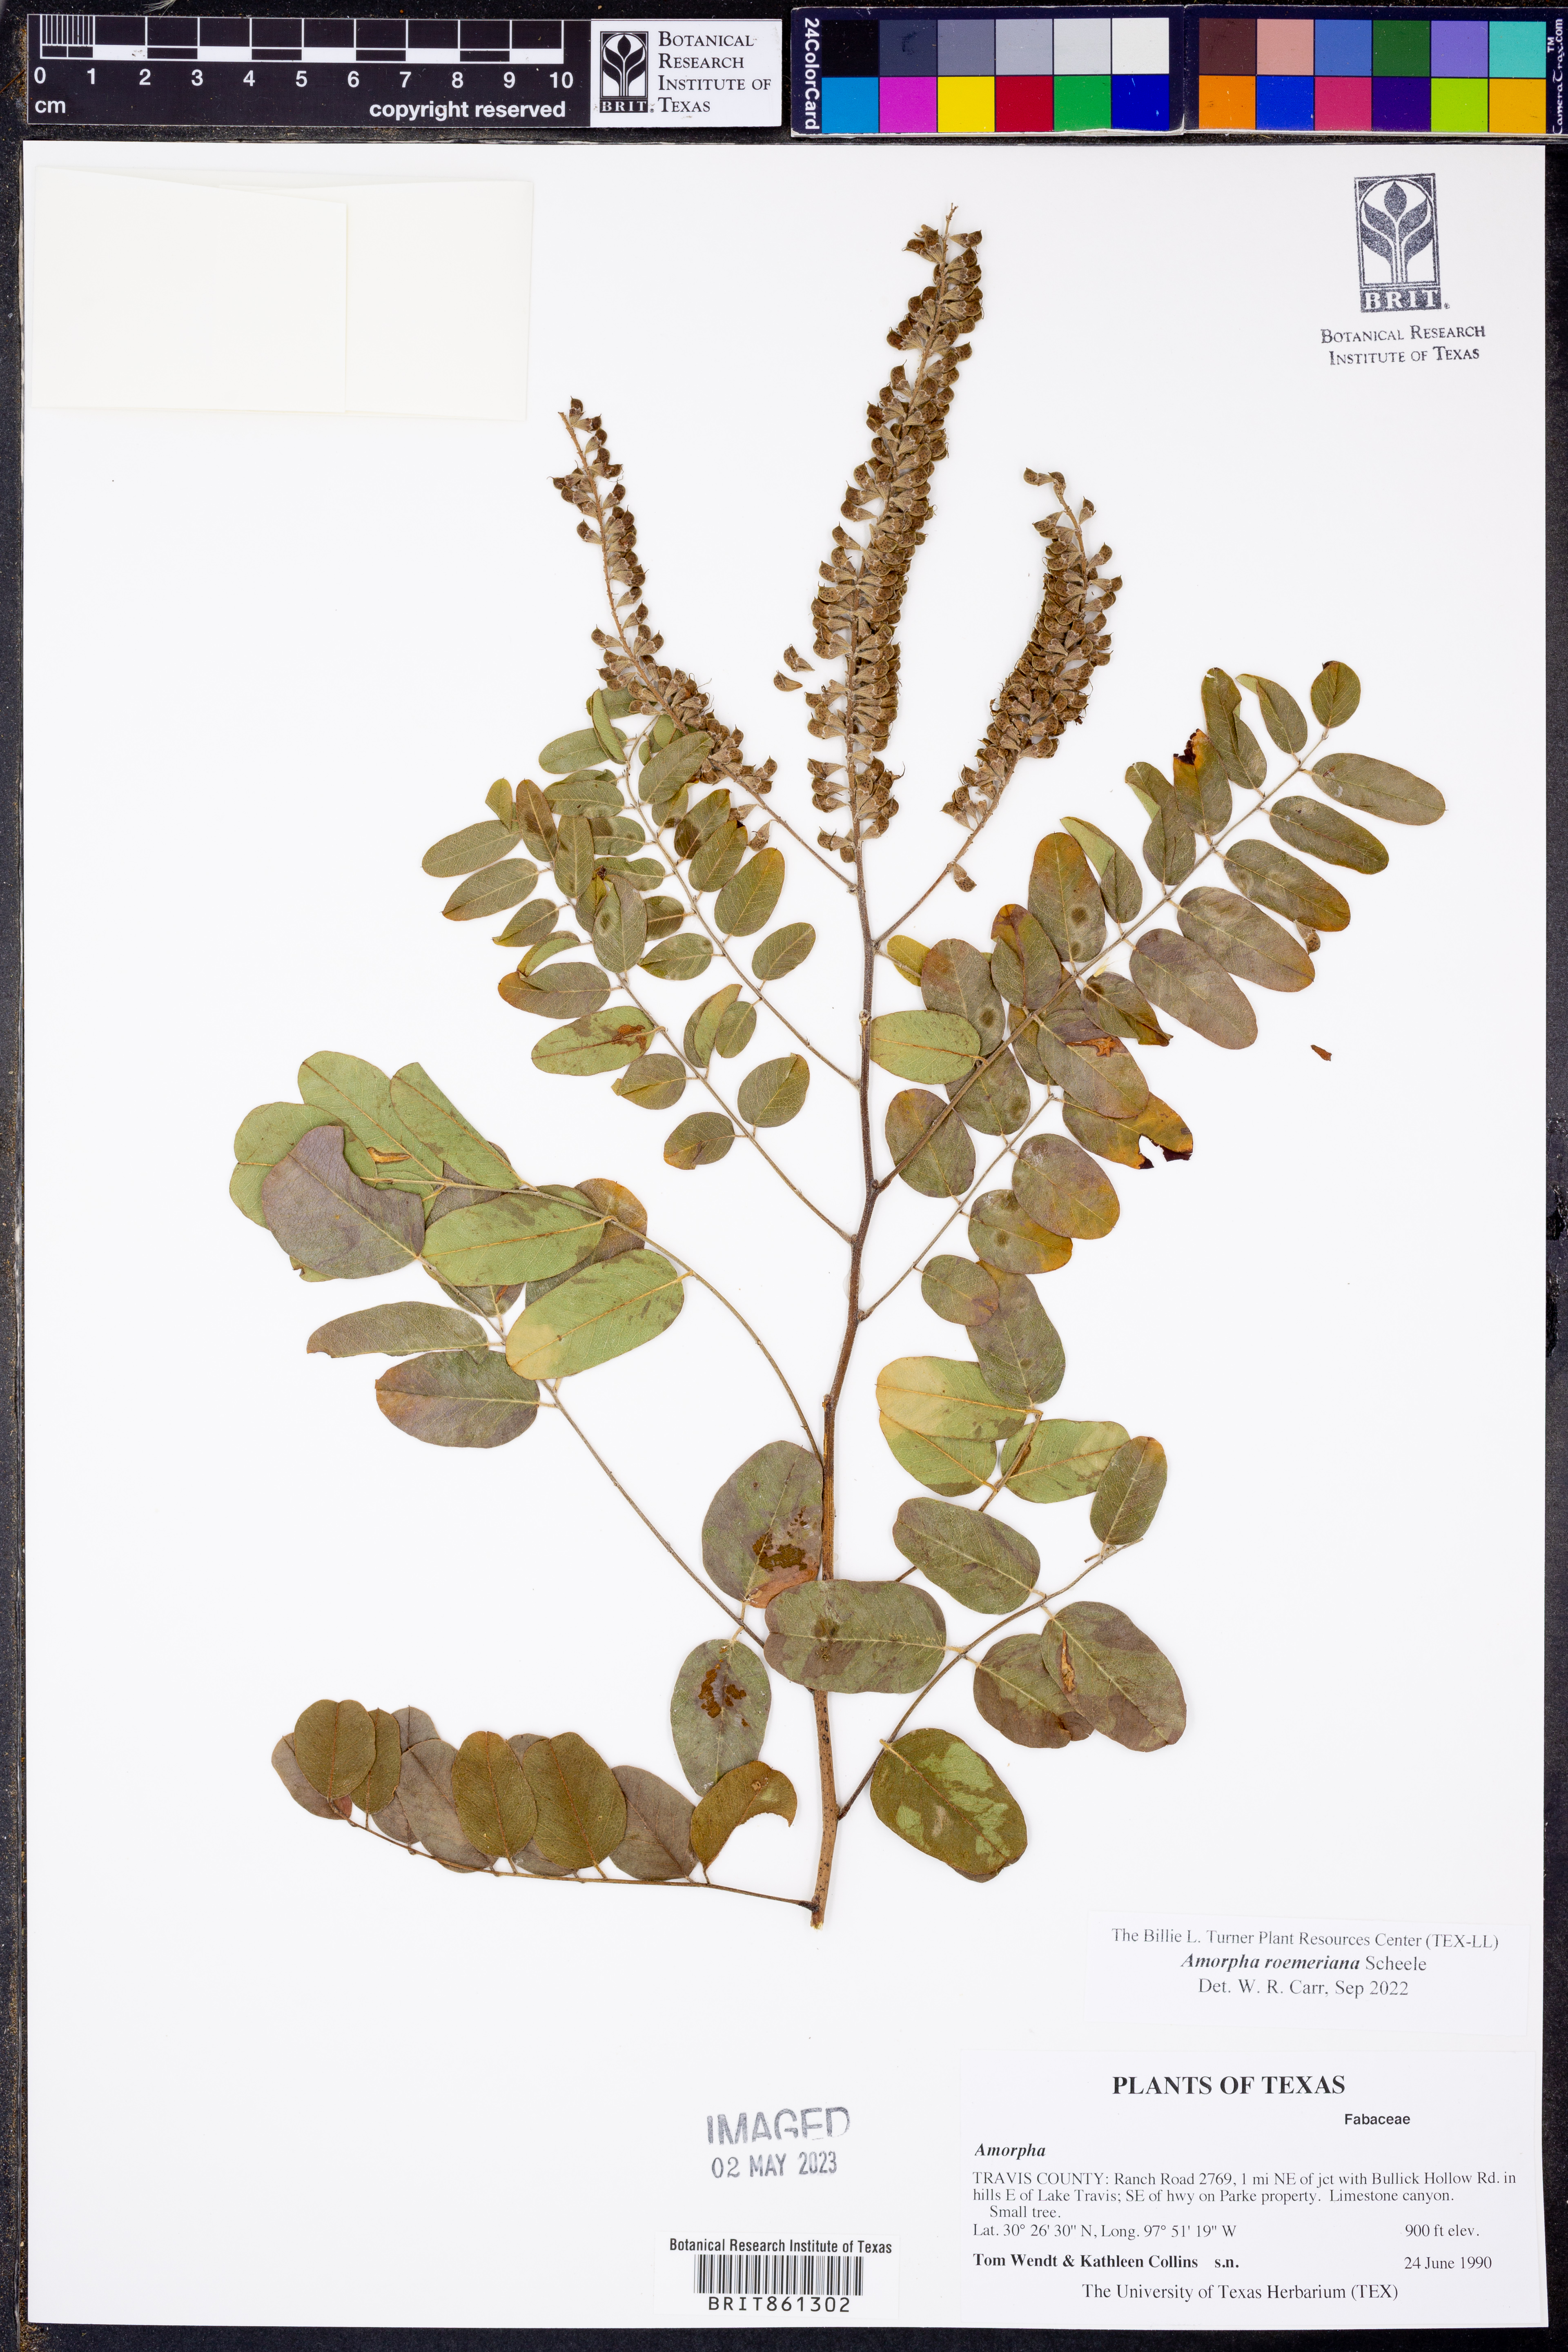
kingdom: Plantae
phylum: Tracheophyta
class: Magnoliopsida
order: Fabales
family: Fabaceae
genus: Amorpha
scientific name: Amorpha roemeriana
